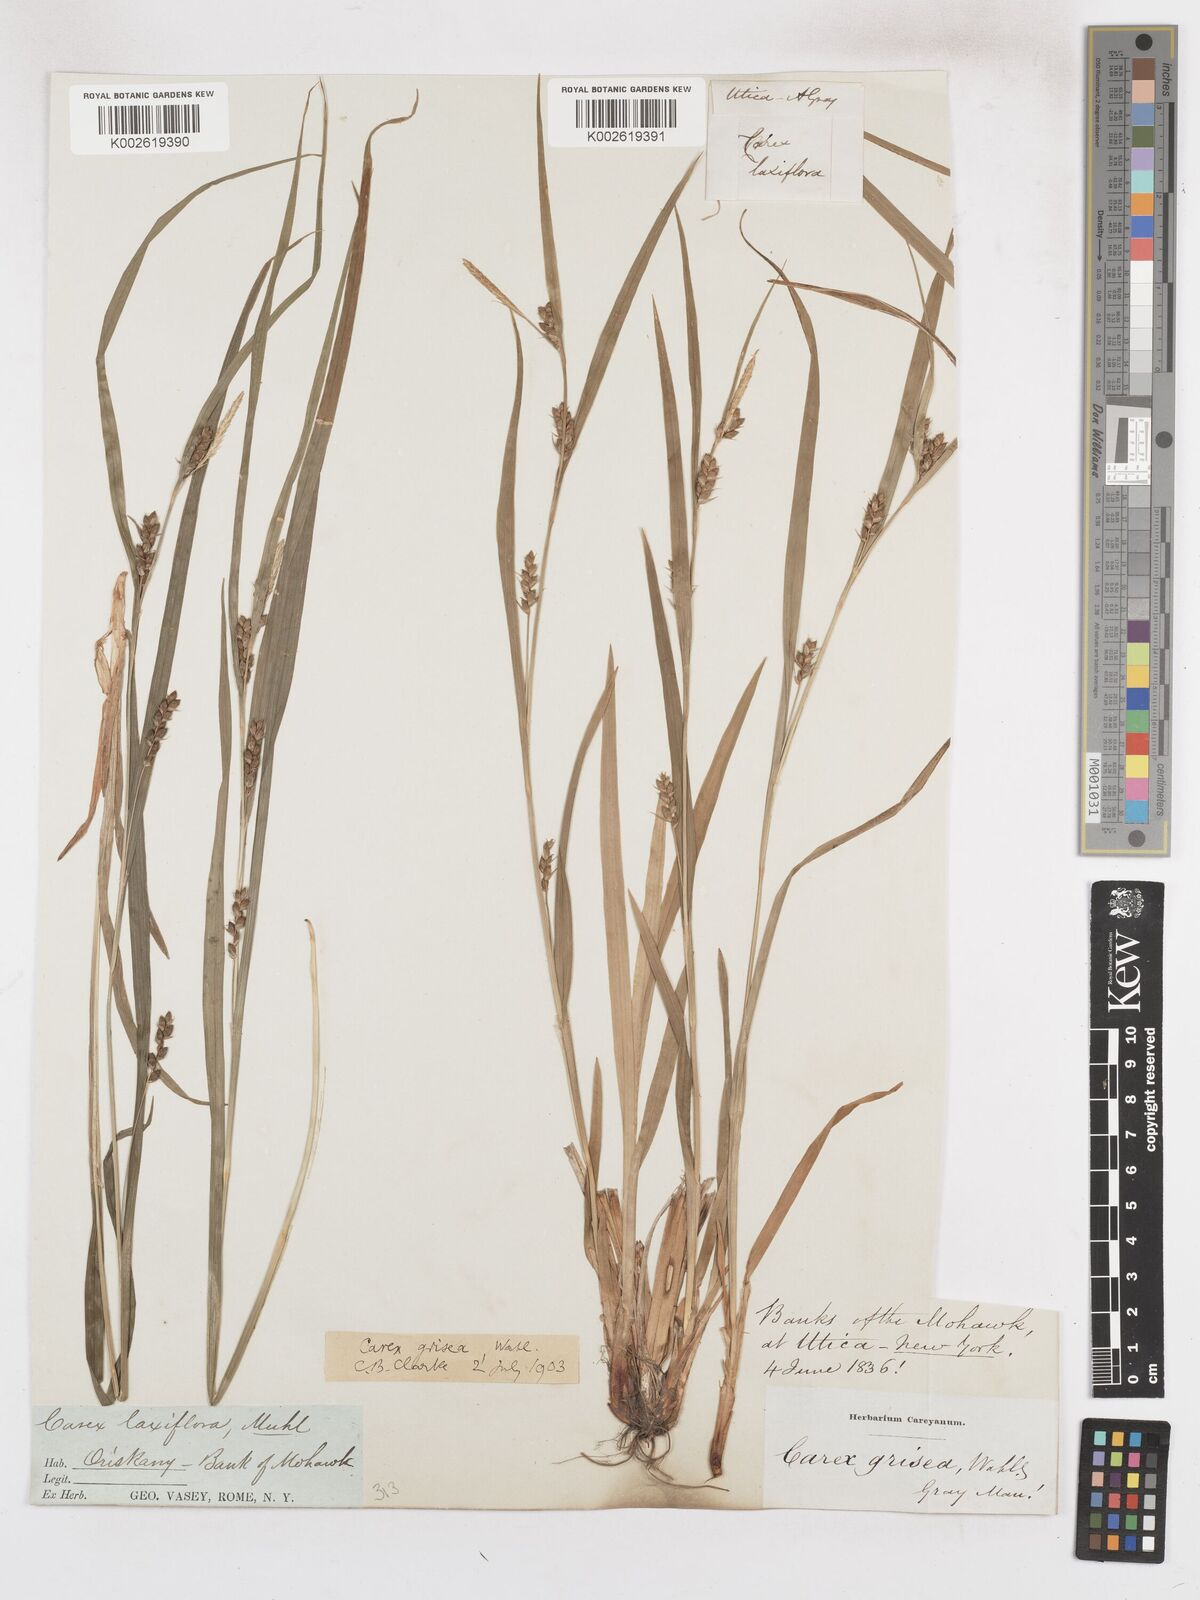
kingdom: Plantae
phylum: Tracheophyta
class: Liliopsida
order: Poales
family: Cyperaceae
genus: Carex
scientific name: Carex grisea
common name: Eastern narrow-leaved sedge
